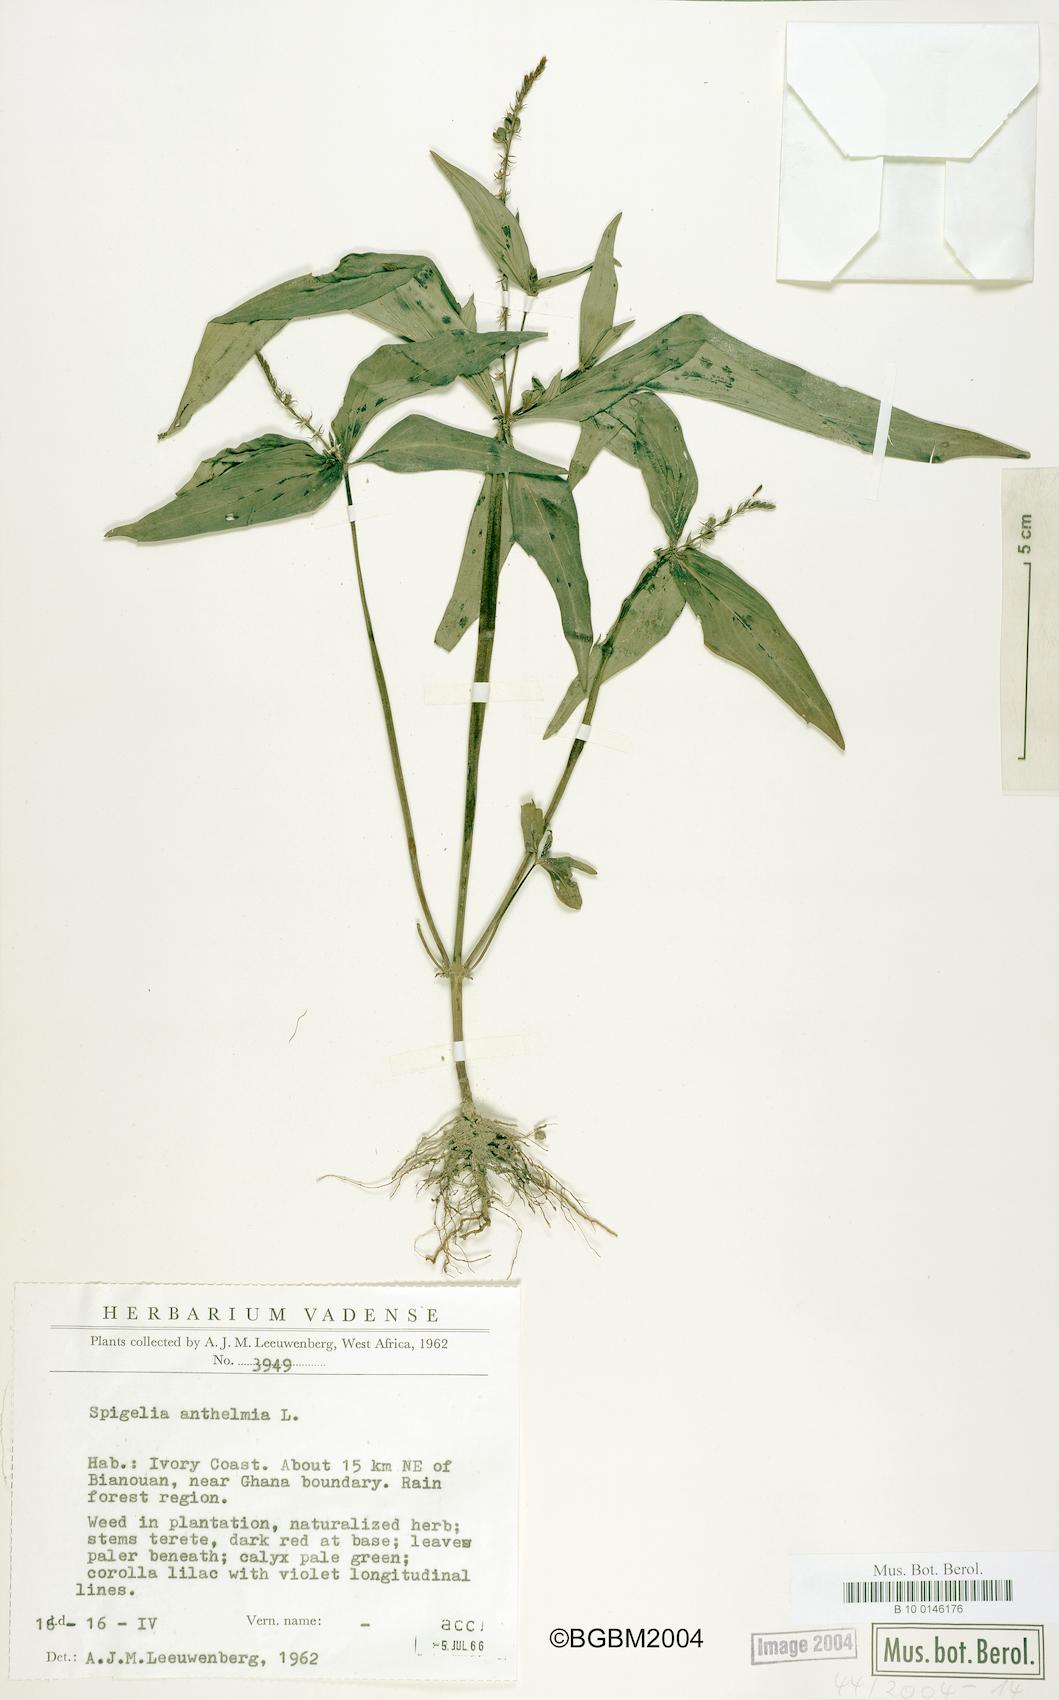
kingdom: Plantae
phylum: Tracheophyta
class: Magnoliopsida
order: Gentianales
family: Loganiaceae
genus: Spigelia
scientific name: Spigelia anthelmia
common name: West indian-pink
